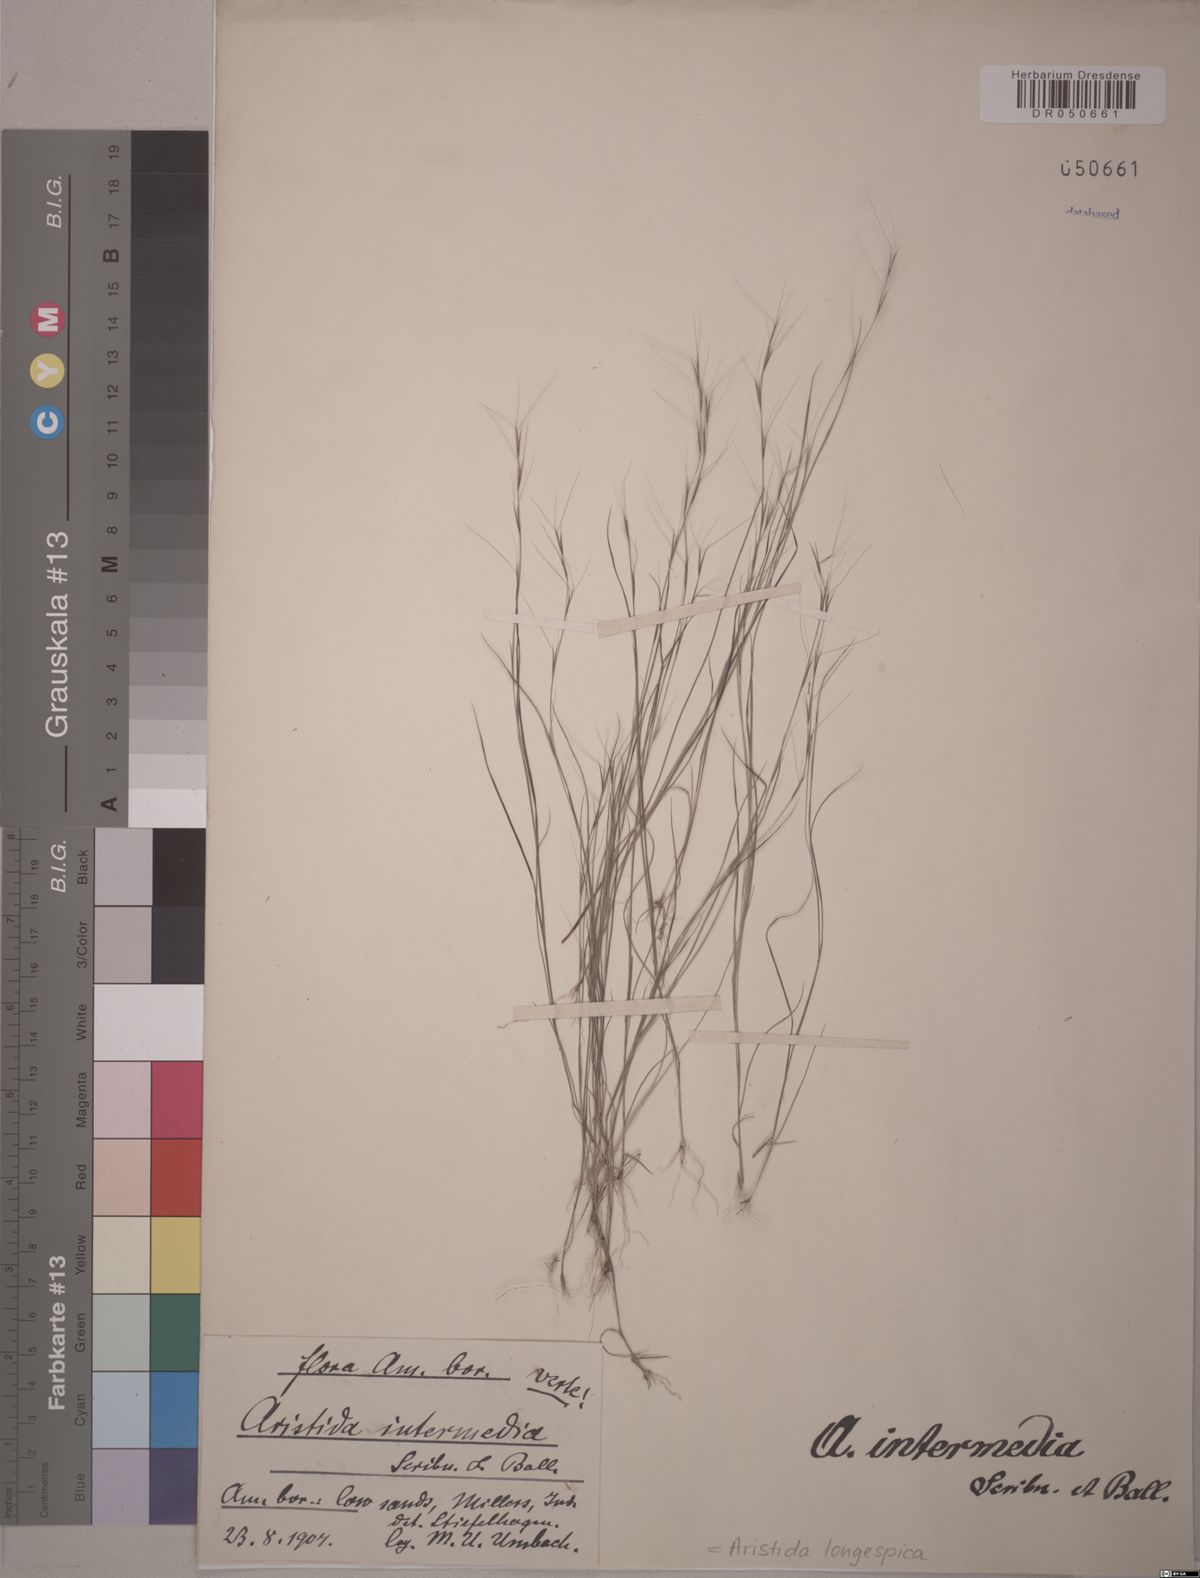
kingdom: Plantae
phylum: Tracheophyta
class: Liliopsida
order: Poales
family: Poaceae
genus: Aristida
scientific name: Aristida longespica
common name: Long-spiked triple-awned grass
